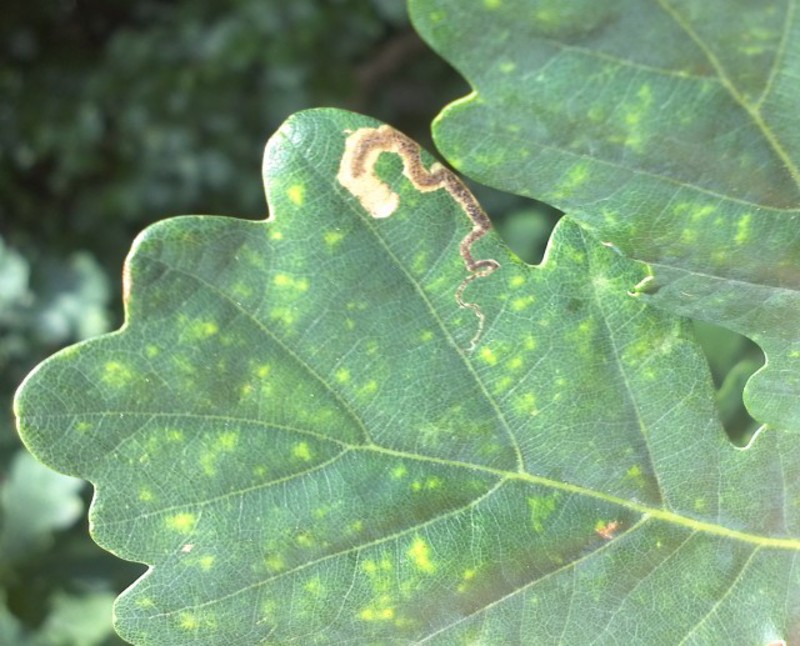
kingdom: Animalia
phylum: Arthropoda
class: Insecta
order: Coleoptera
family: Curculionidae
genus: Orchestes
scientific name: Orchestes avellanae
